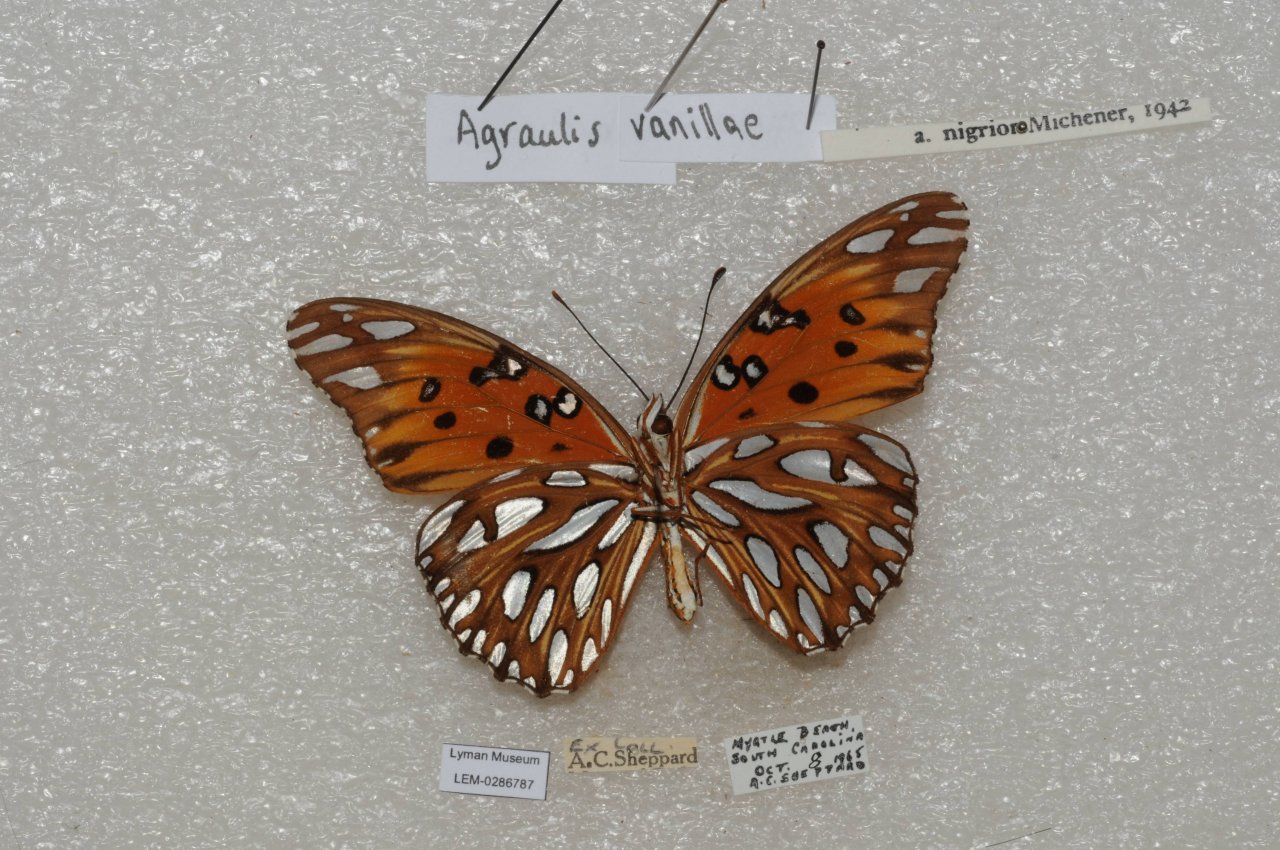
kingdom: Animalia
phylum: Arthropoda
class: Insecta
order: Lepidoptera
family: Nymphalidae
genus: Dione
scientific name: Dione vanillae
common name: Gulf Fritillary
